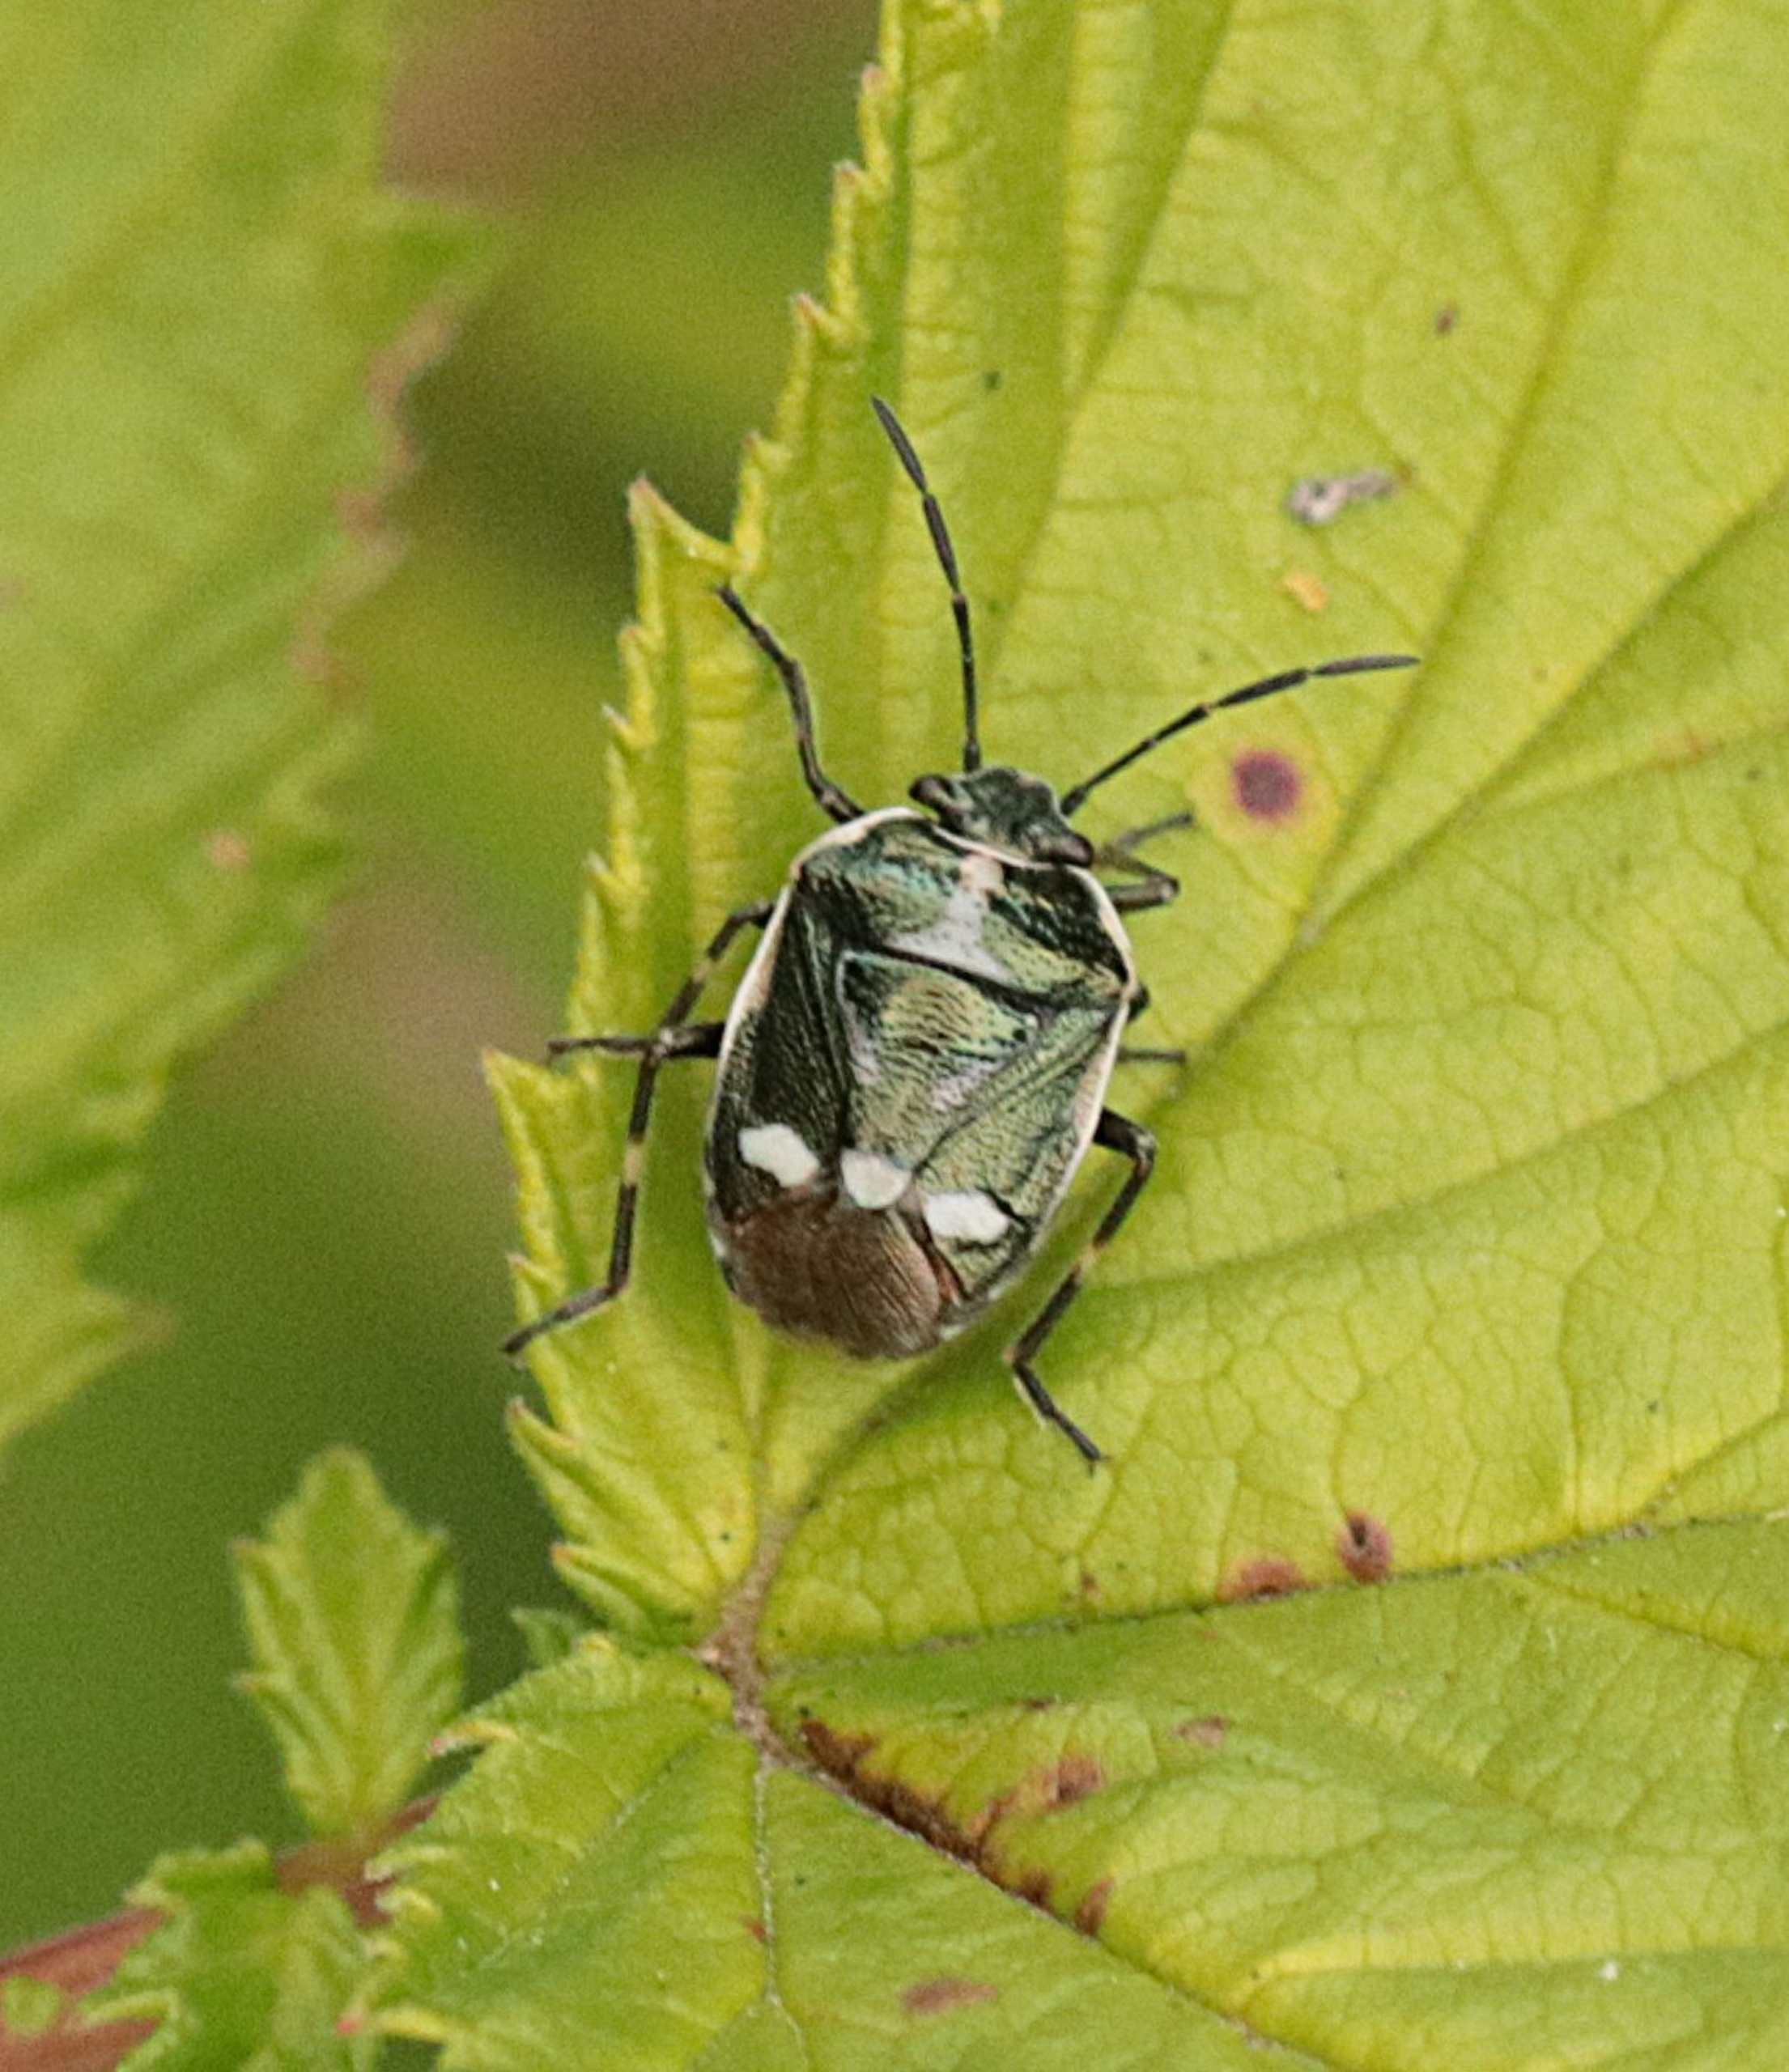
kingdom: Animalia
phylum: Arthropoda
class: Insecta
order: Hemiptera
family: Pentatomidae
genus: Eurydema
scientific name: Eurydema oleracea
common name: Almindelig kåltæge
